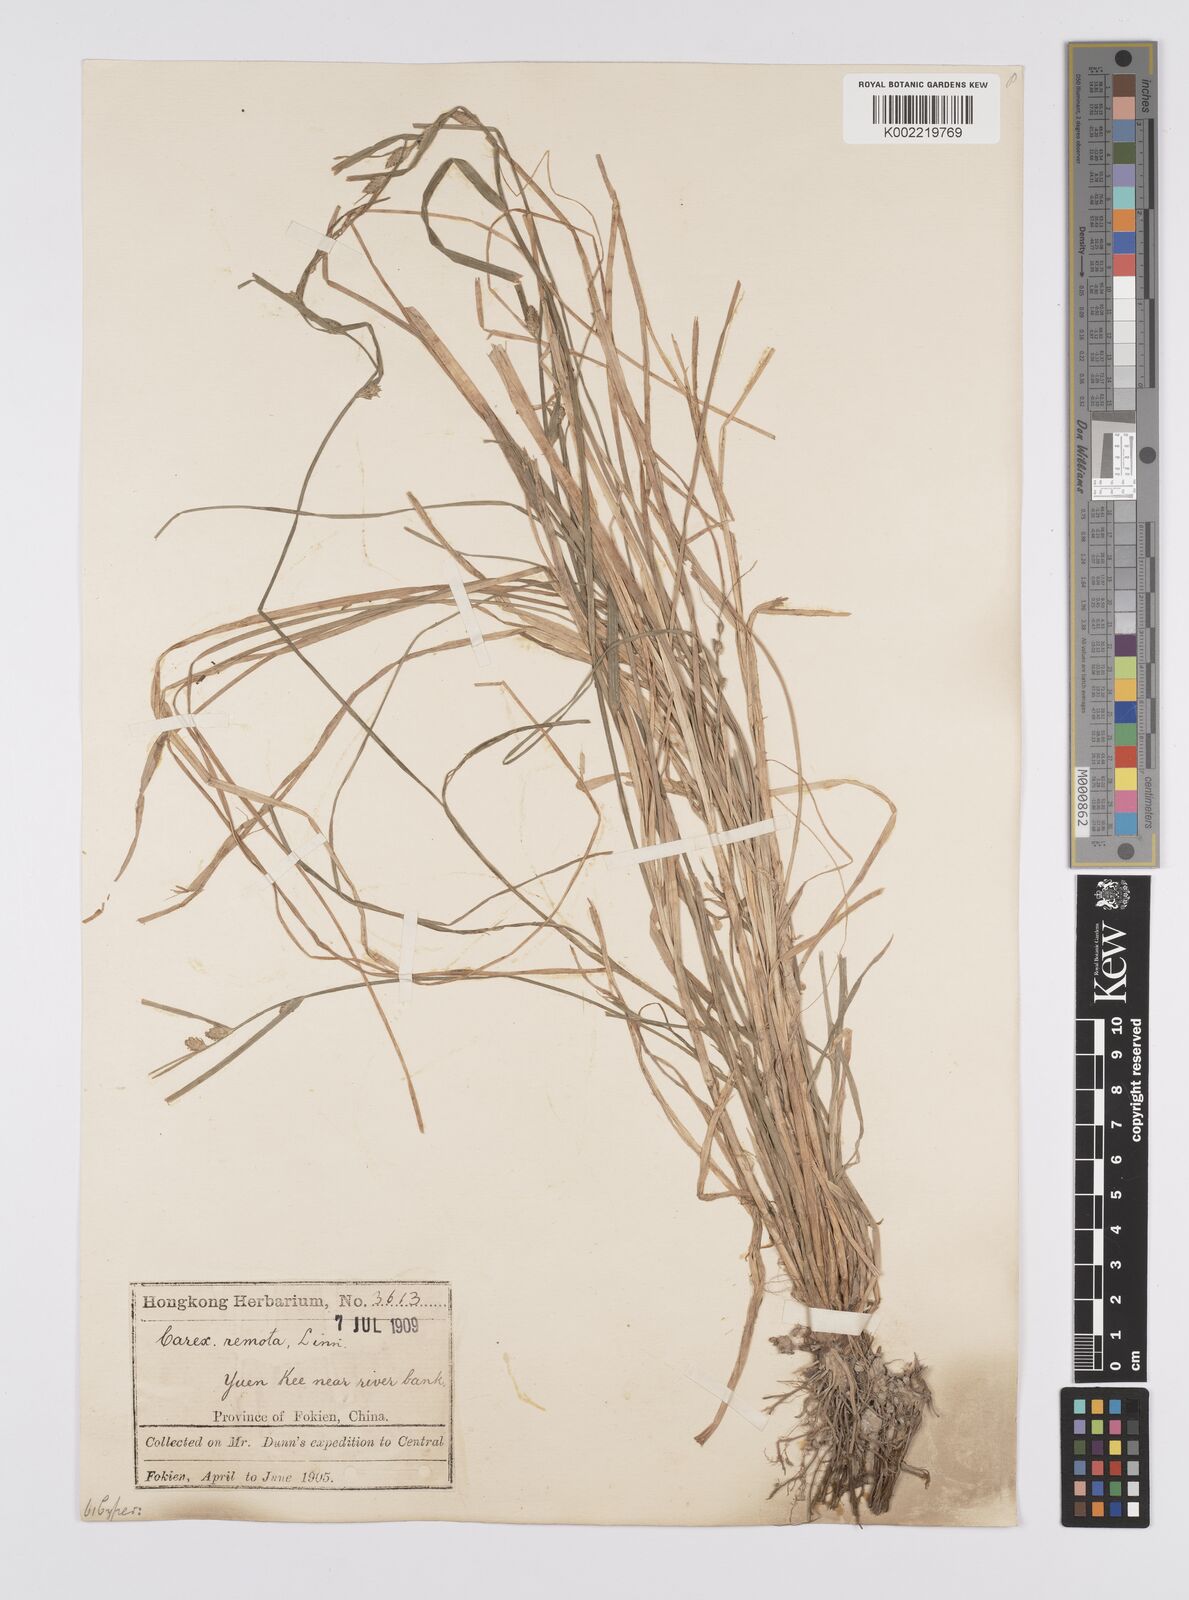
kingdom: Plantae
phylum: Tracheophyta
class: Liliopsida
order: Poales
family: Cyperaceae
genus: Carex
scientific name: Carex remota
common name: Remote sedge
